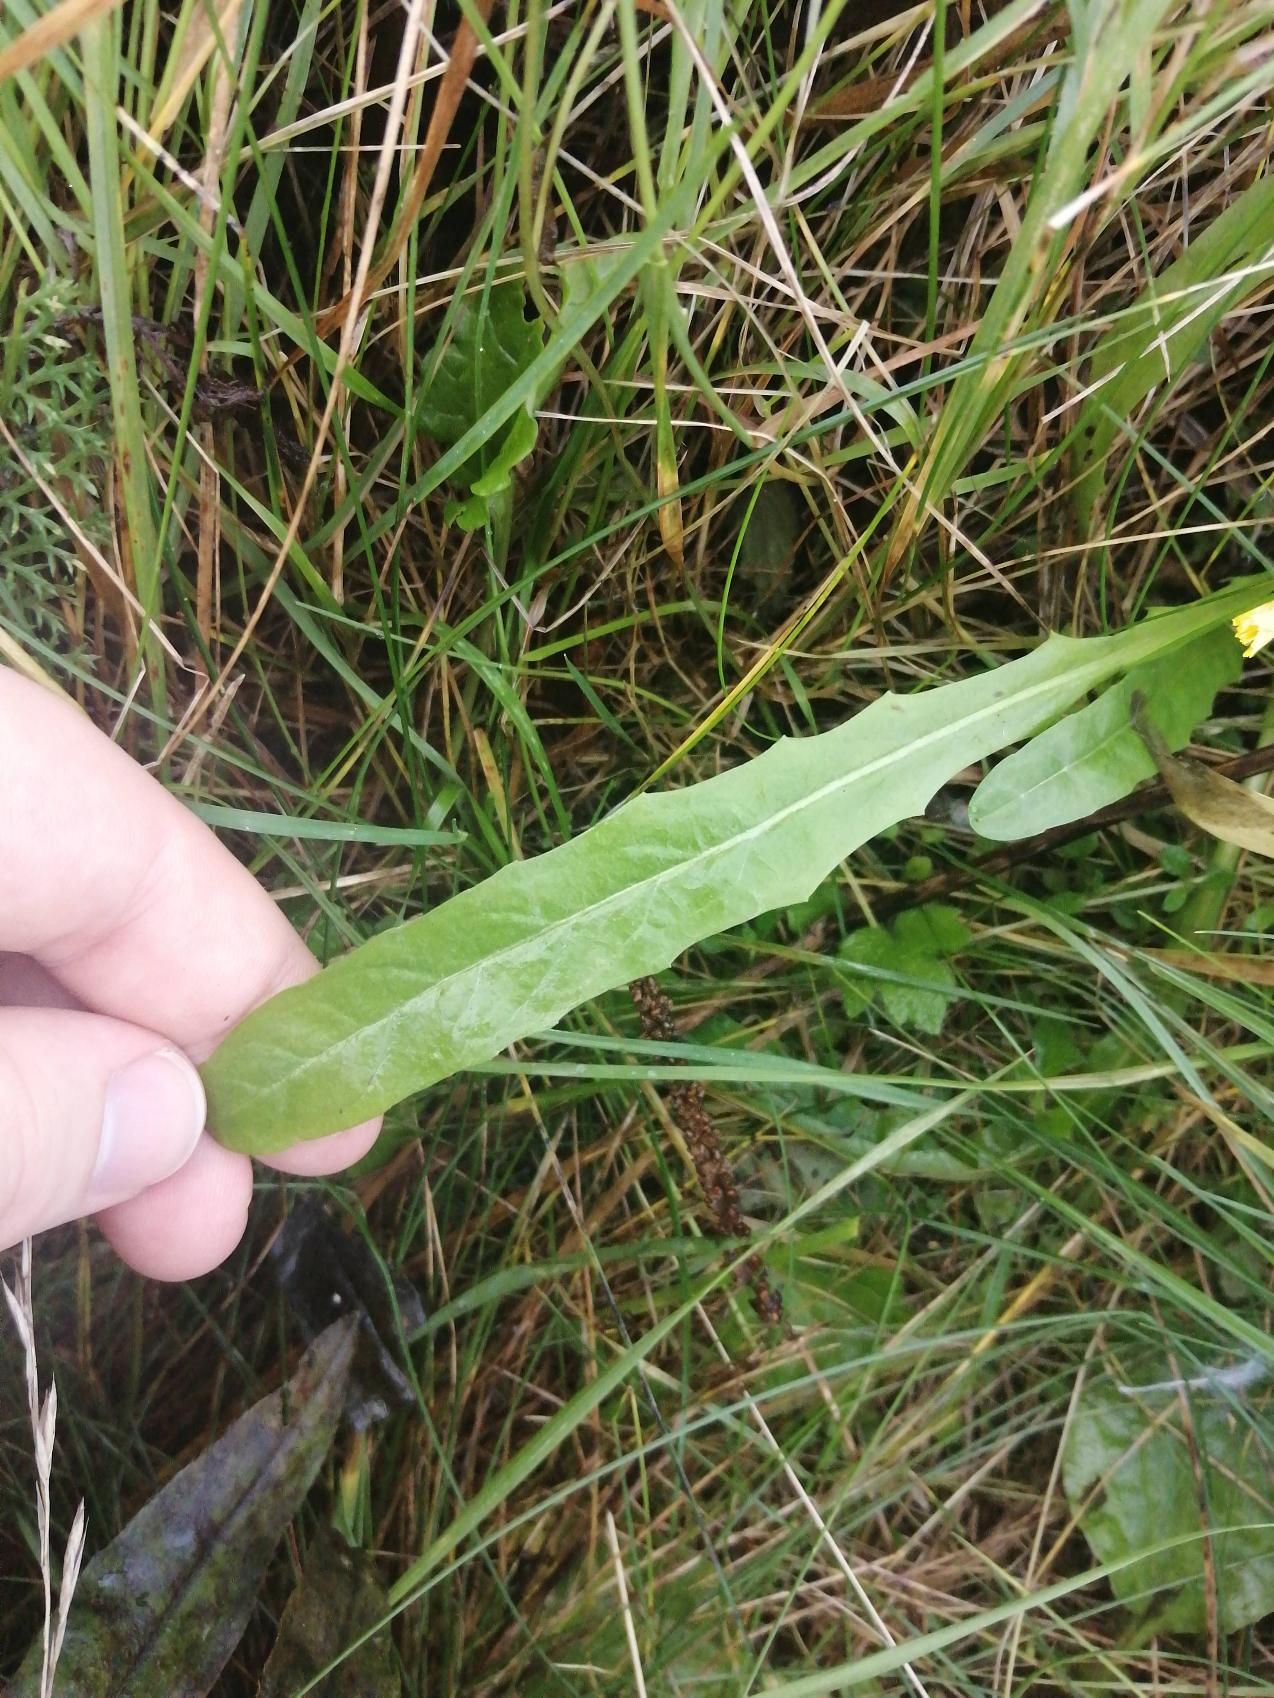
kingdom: Plantae
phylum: Tracheophyta
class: Magnoliopsida
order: Asterales
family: Asteraceae
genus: Crepis
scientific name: Crepis capillaris
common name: Grøn høgeskæg
